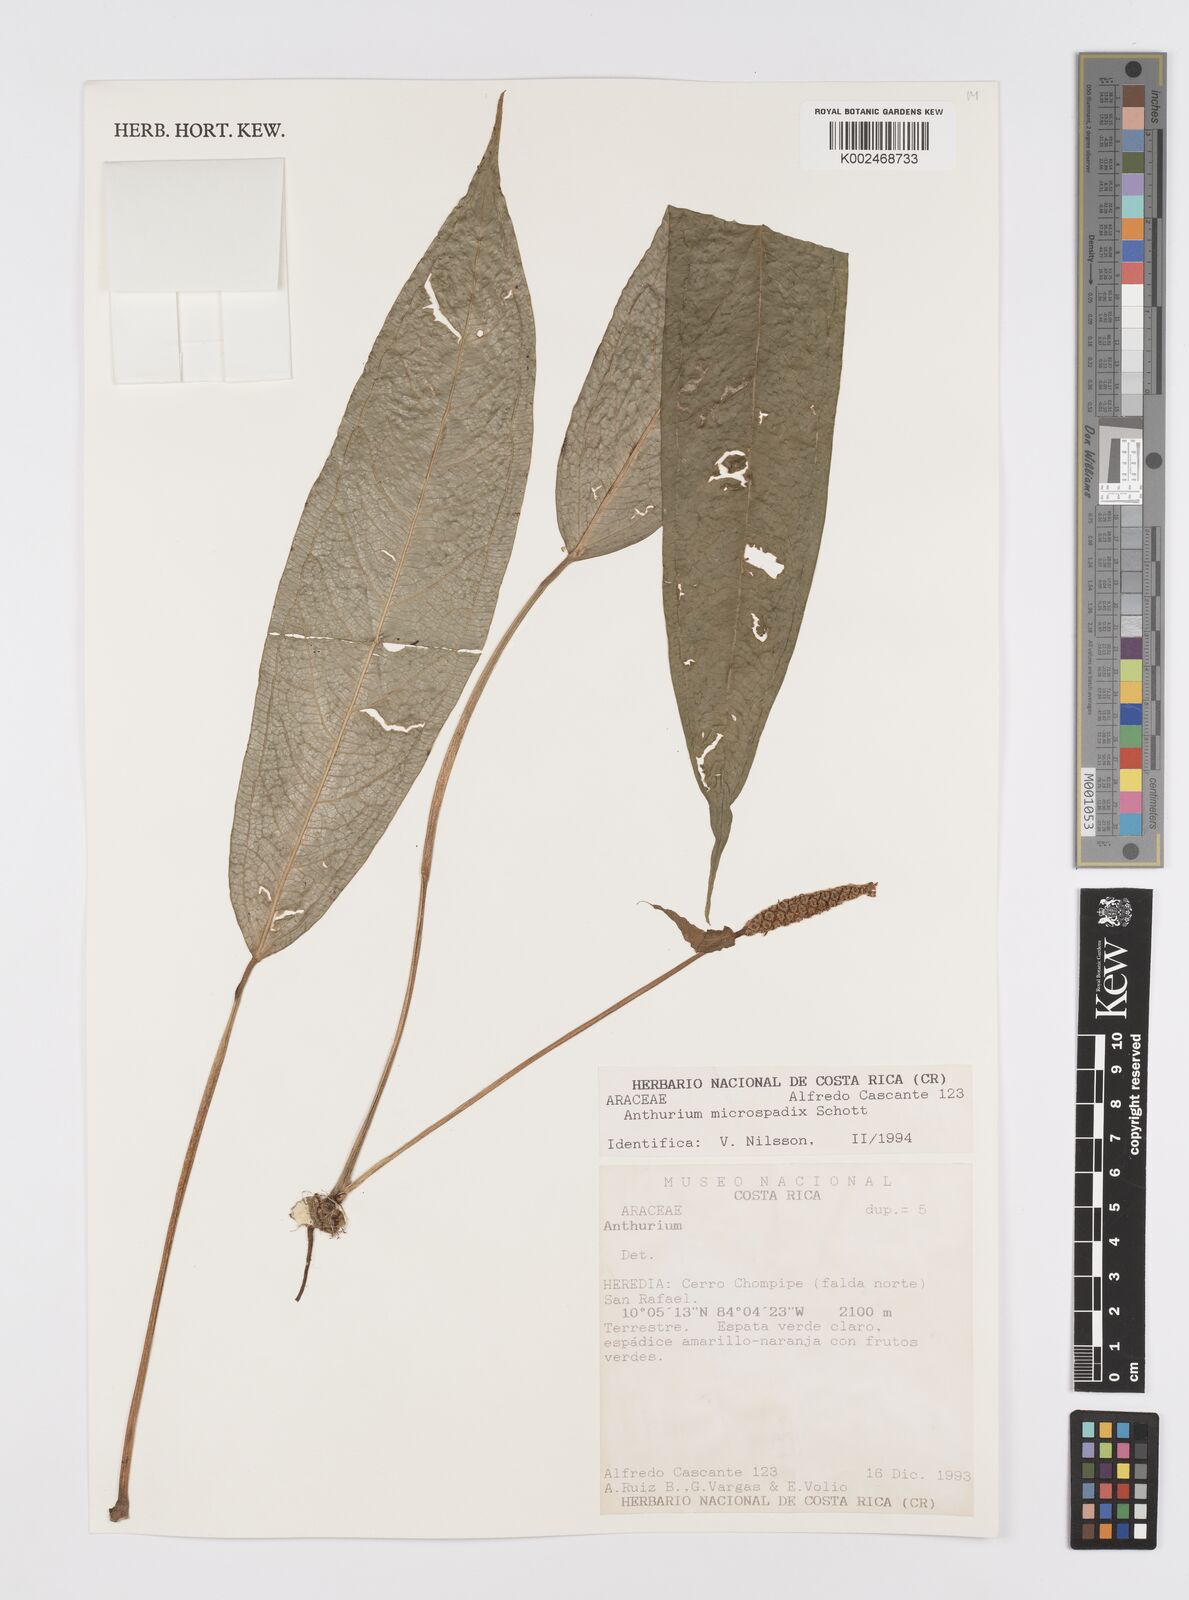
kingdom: Plantae
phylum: Tracheophyta
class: Liliopsida
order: Alismatales
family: Araceae
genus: Anthurium
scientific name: Anthurium microspadix
